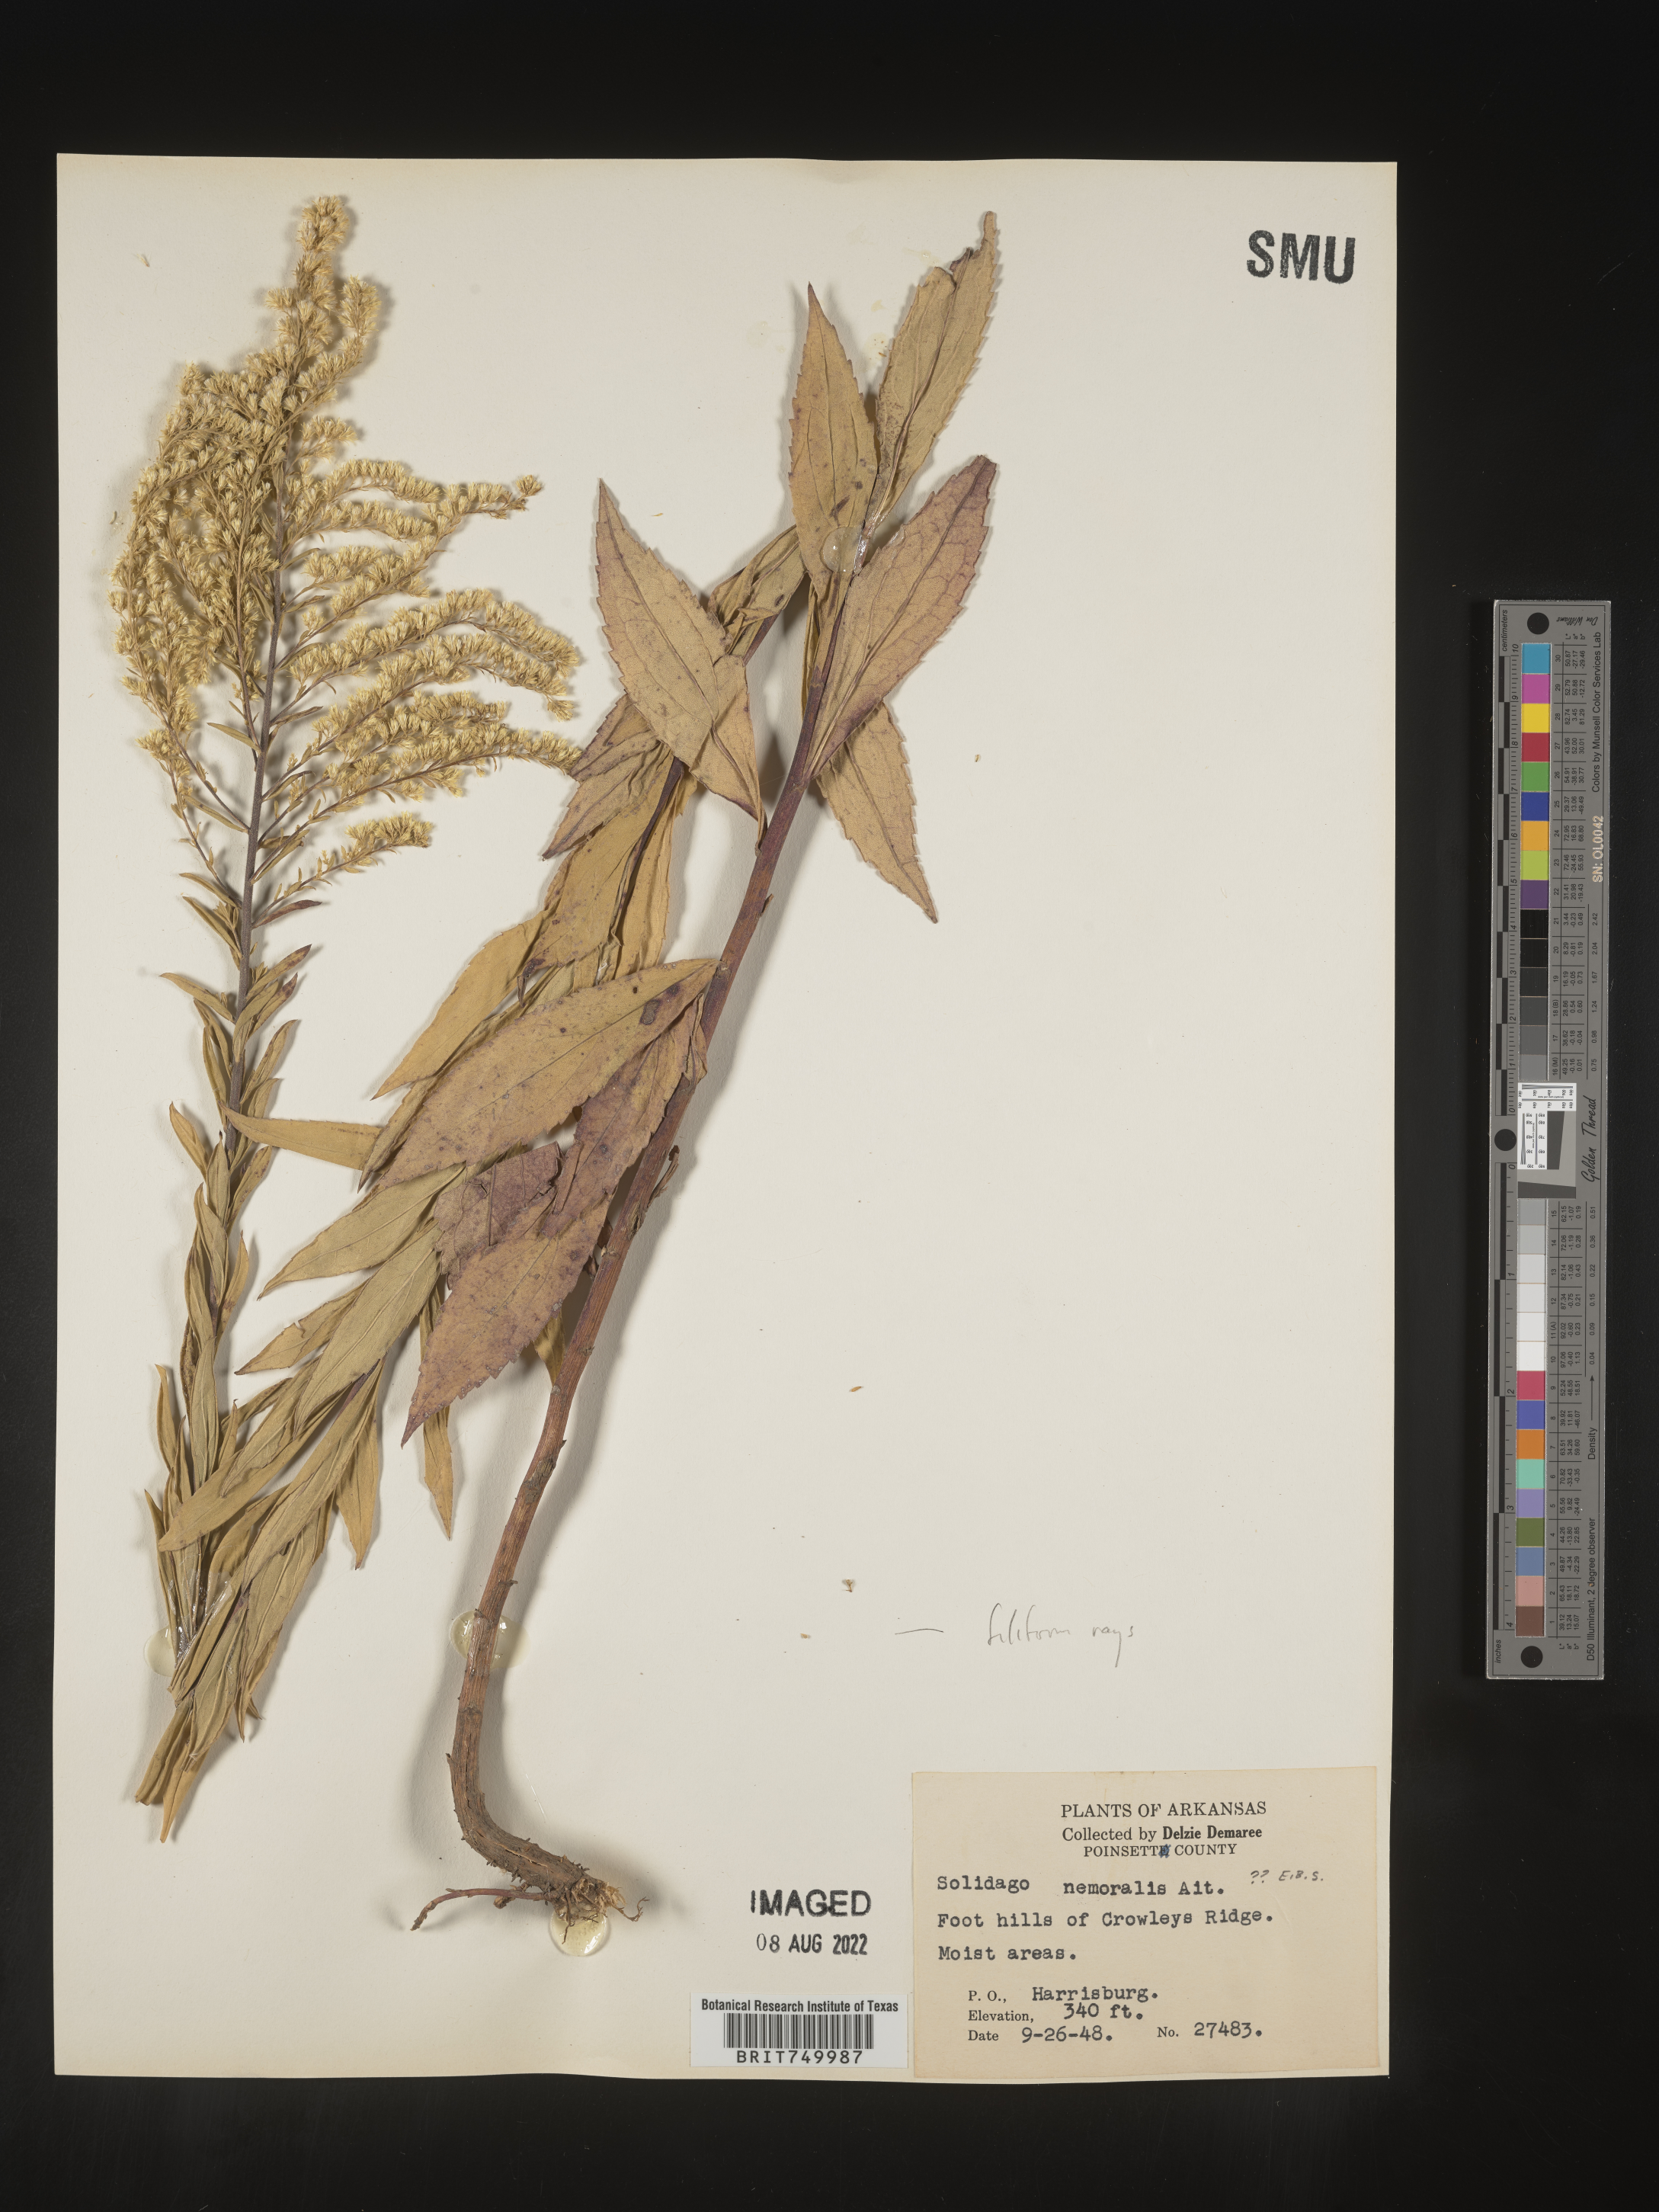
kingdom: Plantae
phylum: Tracheophyta
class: Magnoliopsida
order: Asterales
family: Asteraceae
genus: Solidago
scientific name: Solidago
